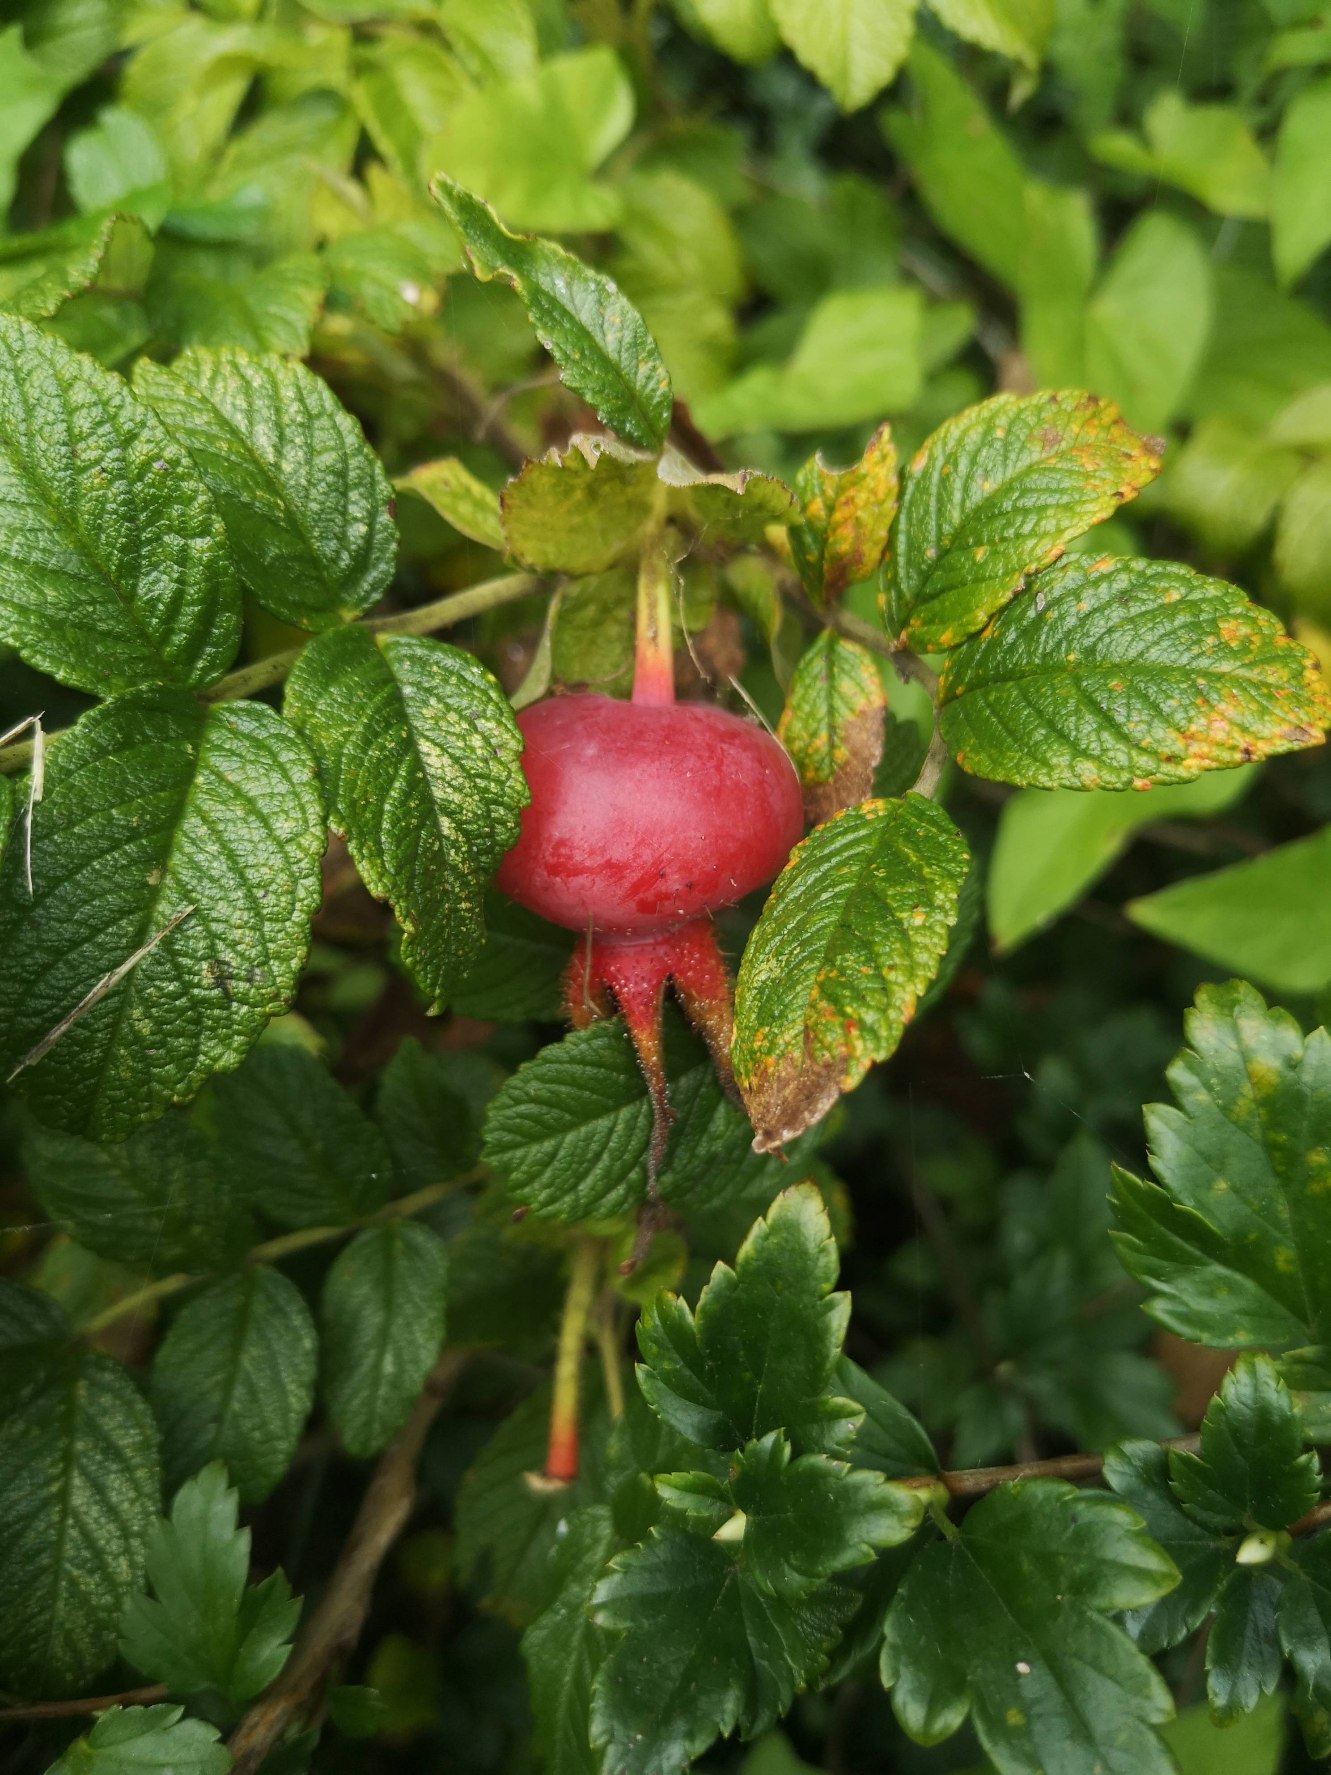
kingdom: Plantae
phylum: Tracheophyta
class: Magnoliopsida
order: Rosales
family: Rosaceae
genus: Rosa
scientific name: Rosa rugosa
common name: Rynket rose
